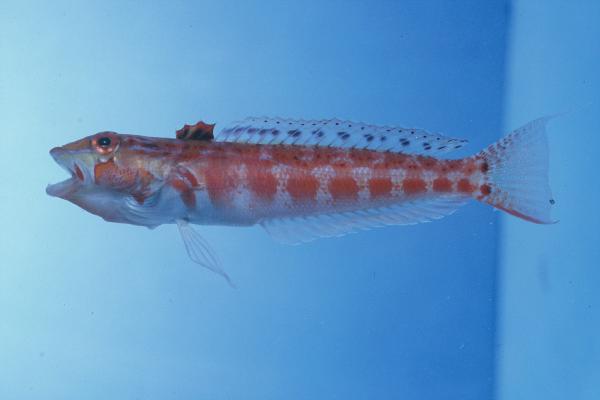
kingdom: Animalia
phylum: Chordata
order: Perciformes
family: Pinguipedidae
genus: Parapercis
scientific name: Parapercis schauinslandii
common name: Redspotted sandperch
